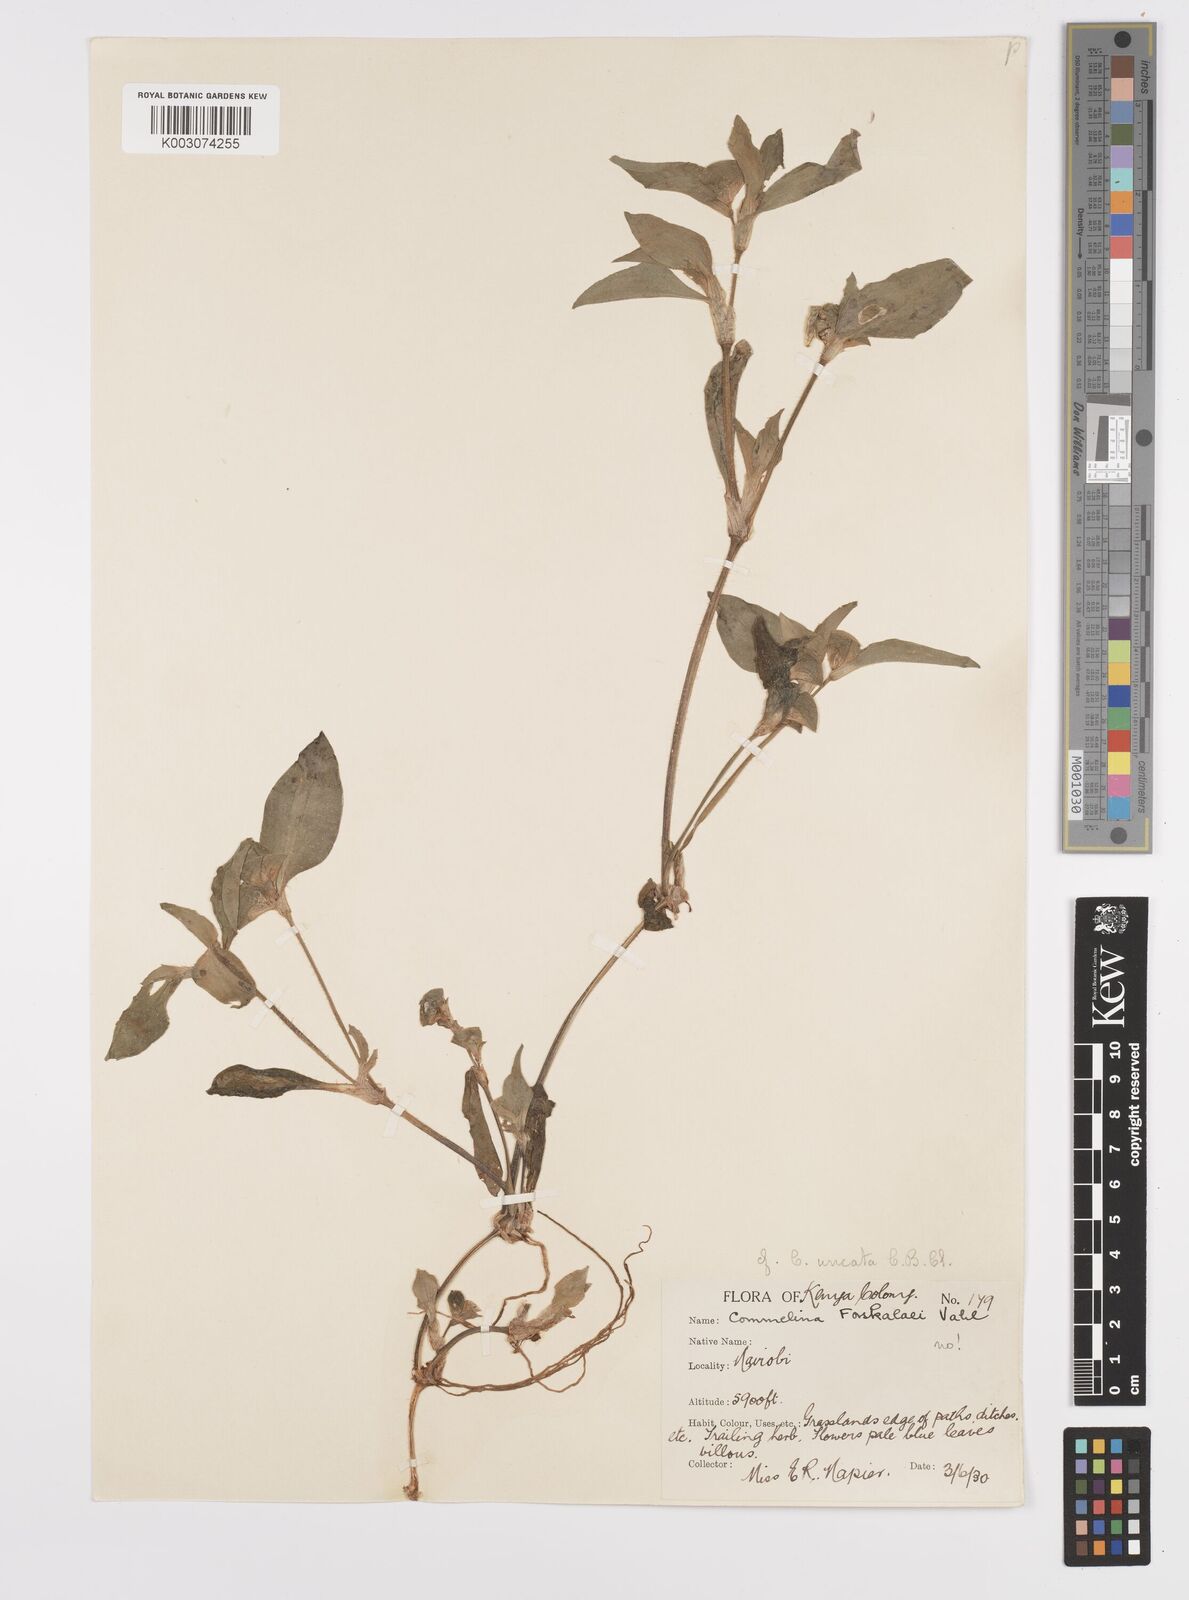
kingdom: Plantae
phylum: Tracheophyta
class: Liliopsida
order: Commelinales
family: Commelinaceae
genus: Commelina
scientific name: Commelina benghalensis
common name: Jio
